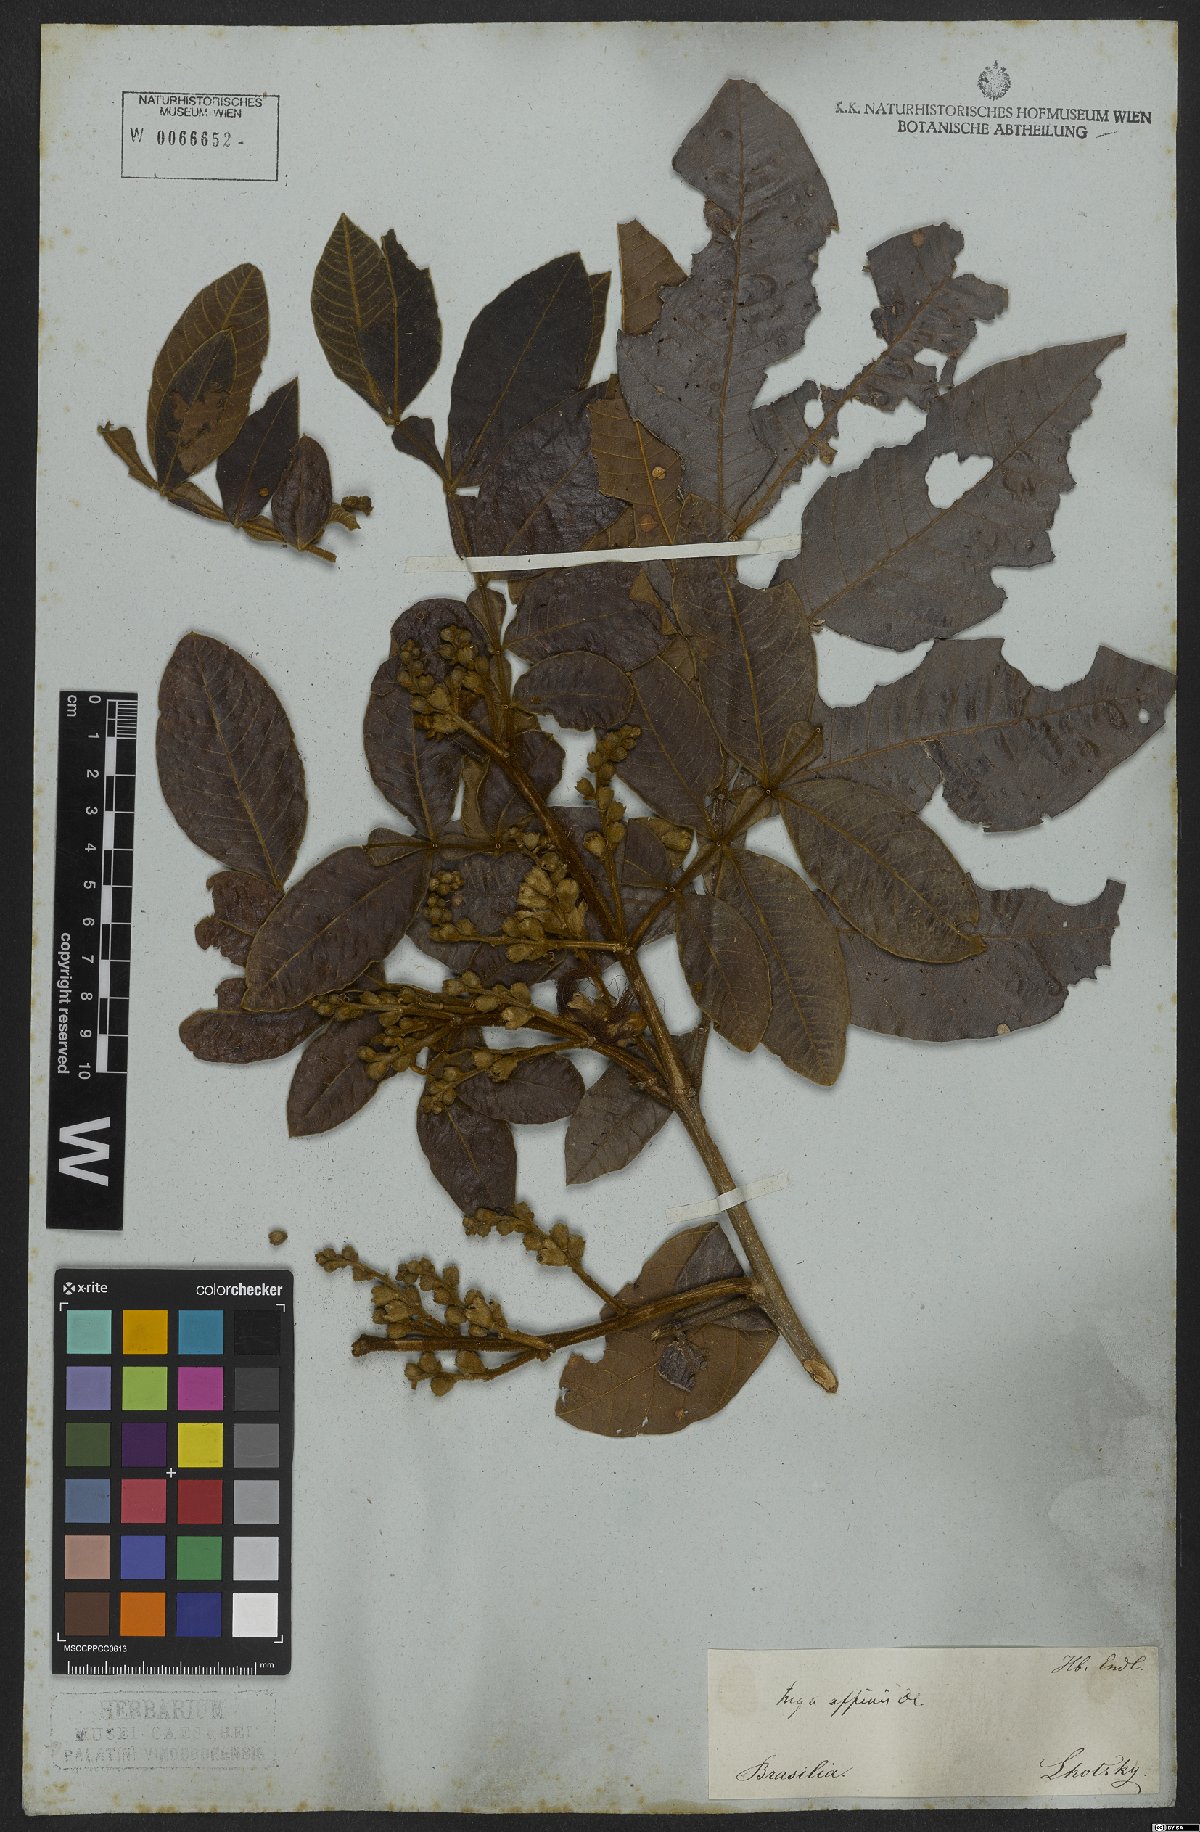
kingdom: Plantae
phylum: Tracheophyta
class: Magnoliopsida
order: Fabales
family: Fabaceae
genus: Inga
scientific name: Inga pilosula
